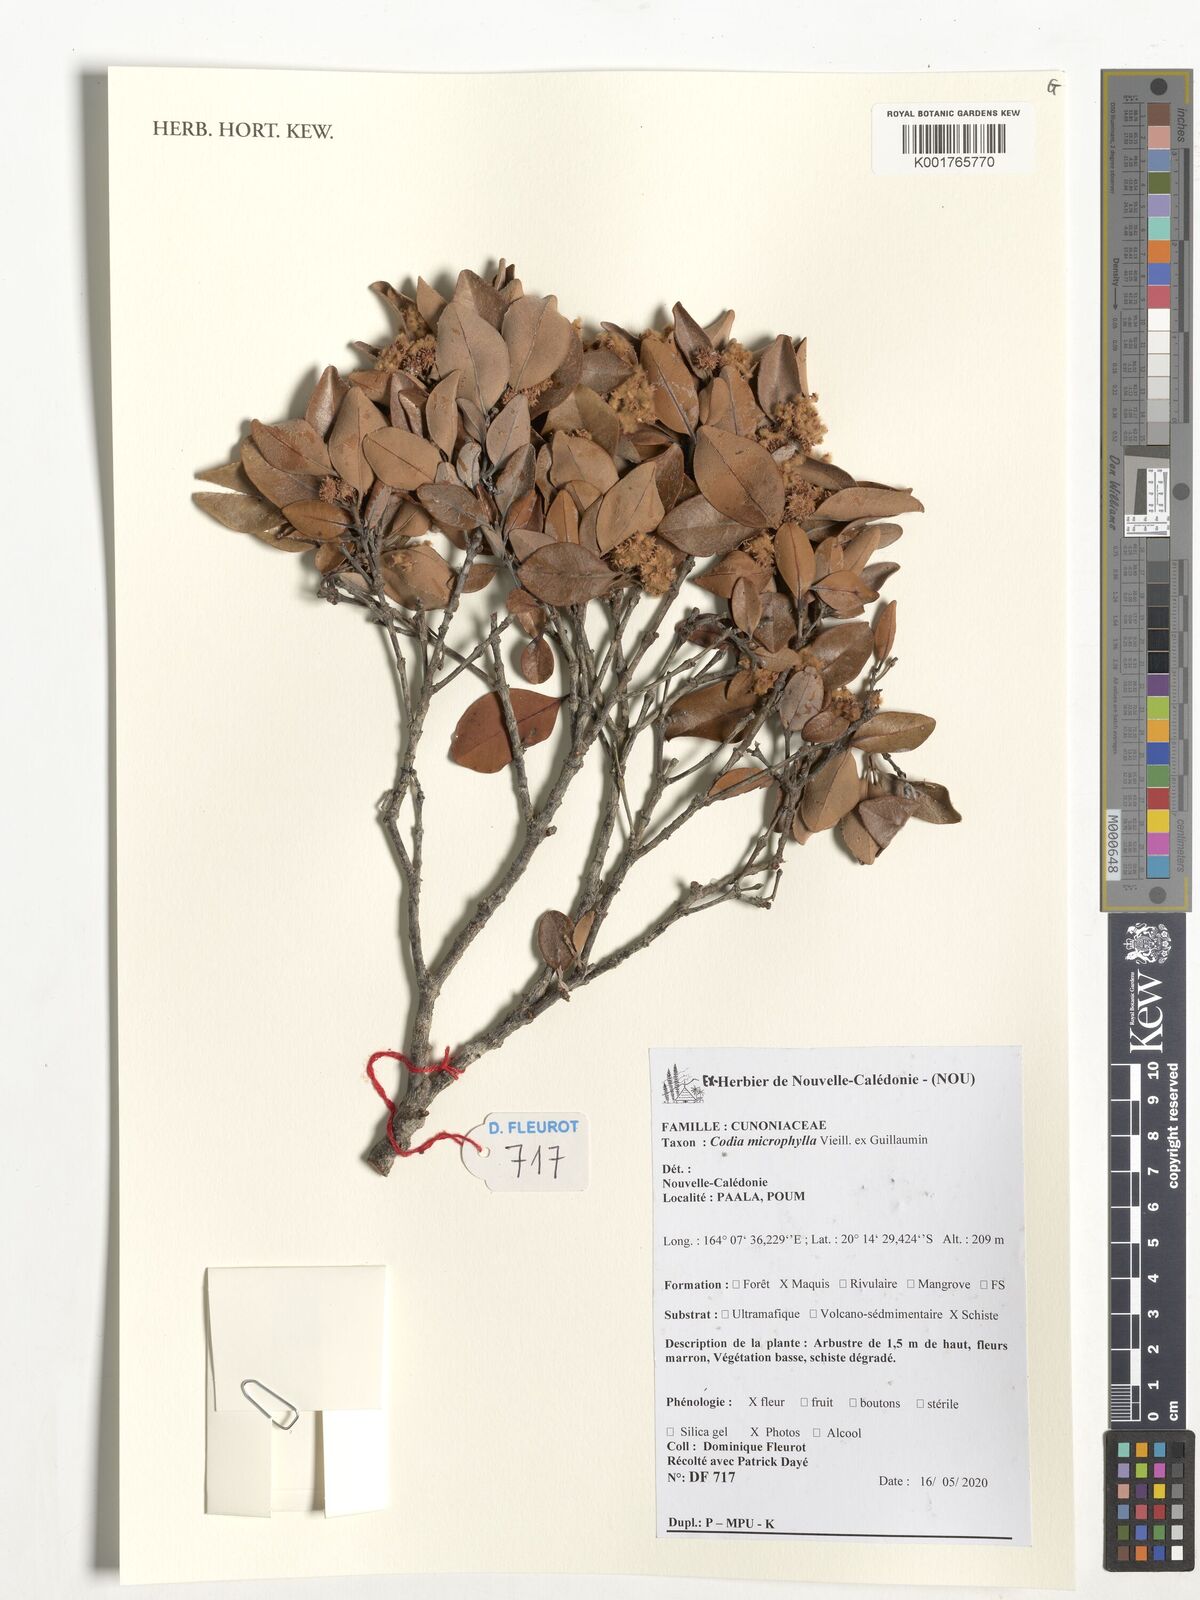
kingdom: Plantae
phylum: Tracheophyta
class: Magnoliopsida
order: Oxalidales
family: Cunoniaceae
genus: Codia
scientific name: Codia microphylla
